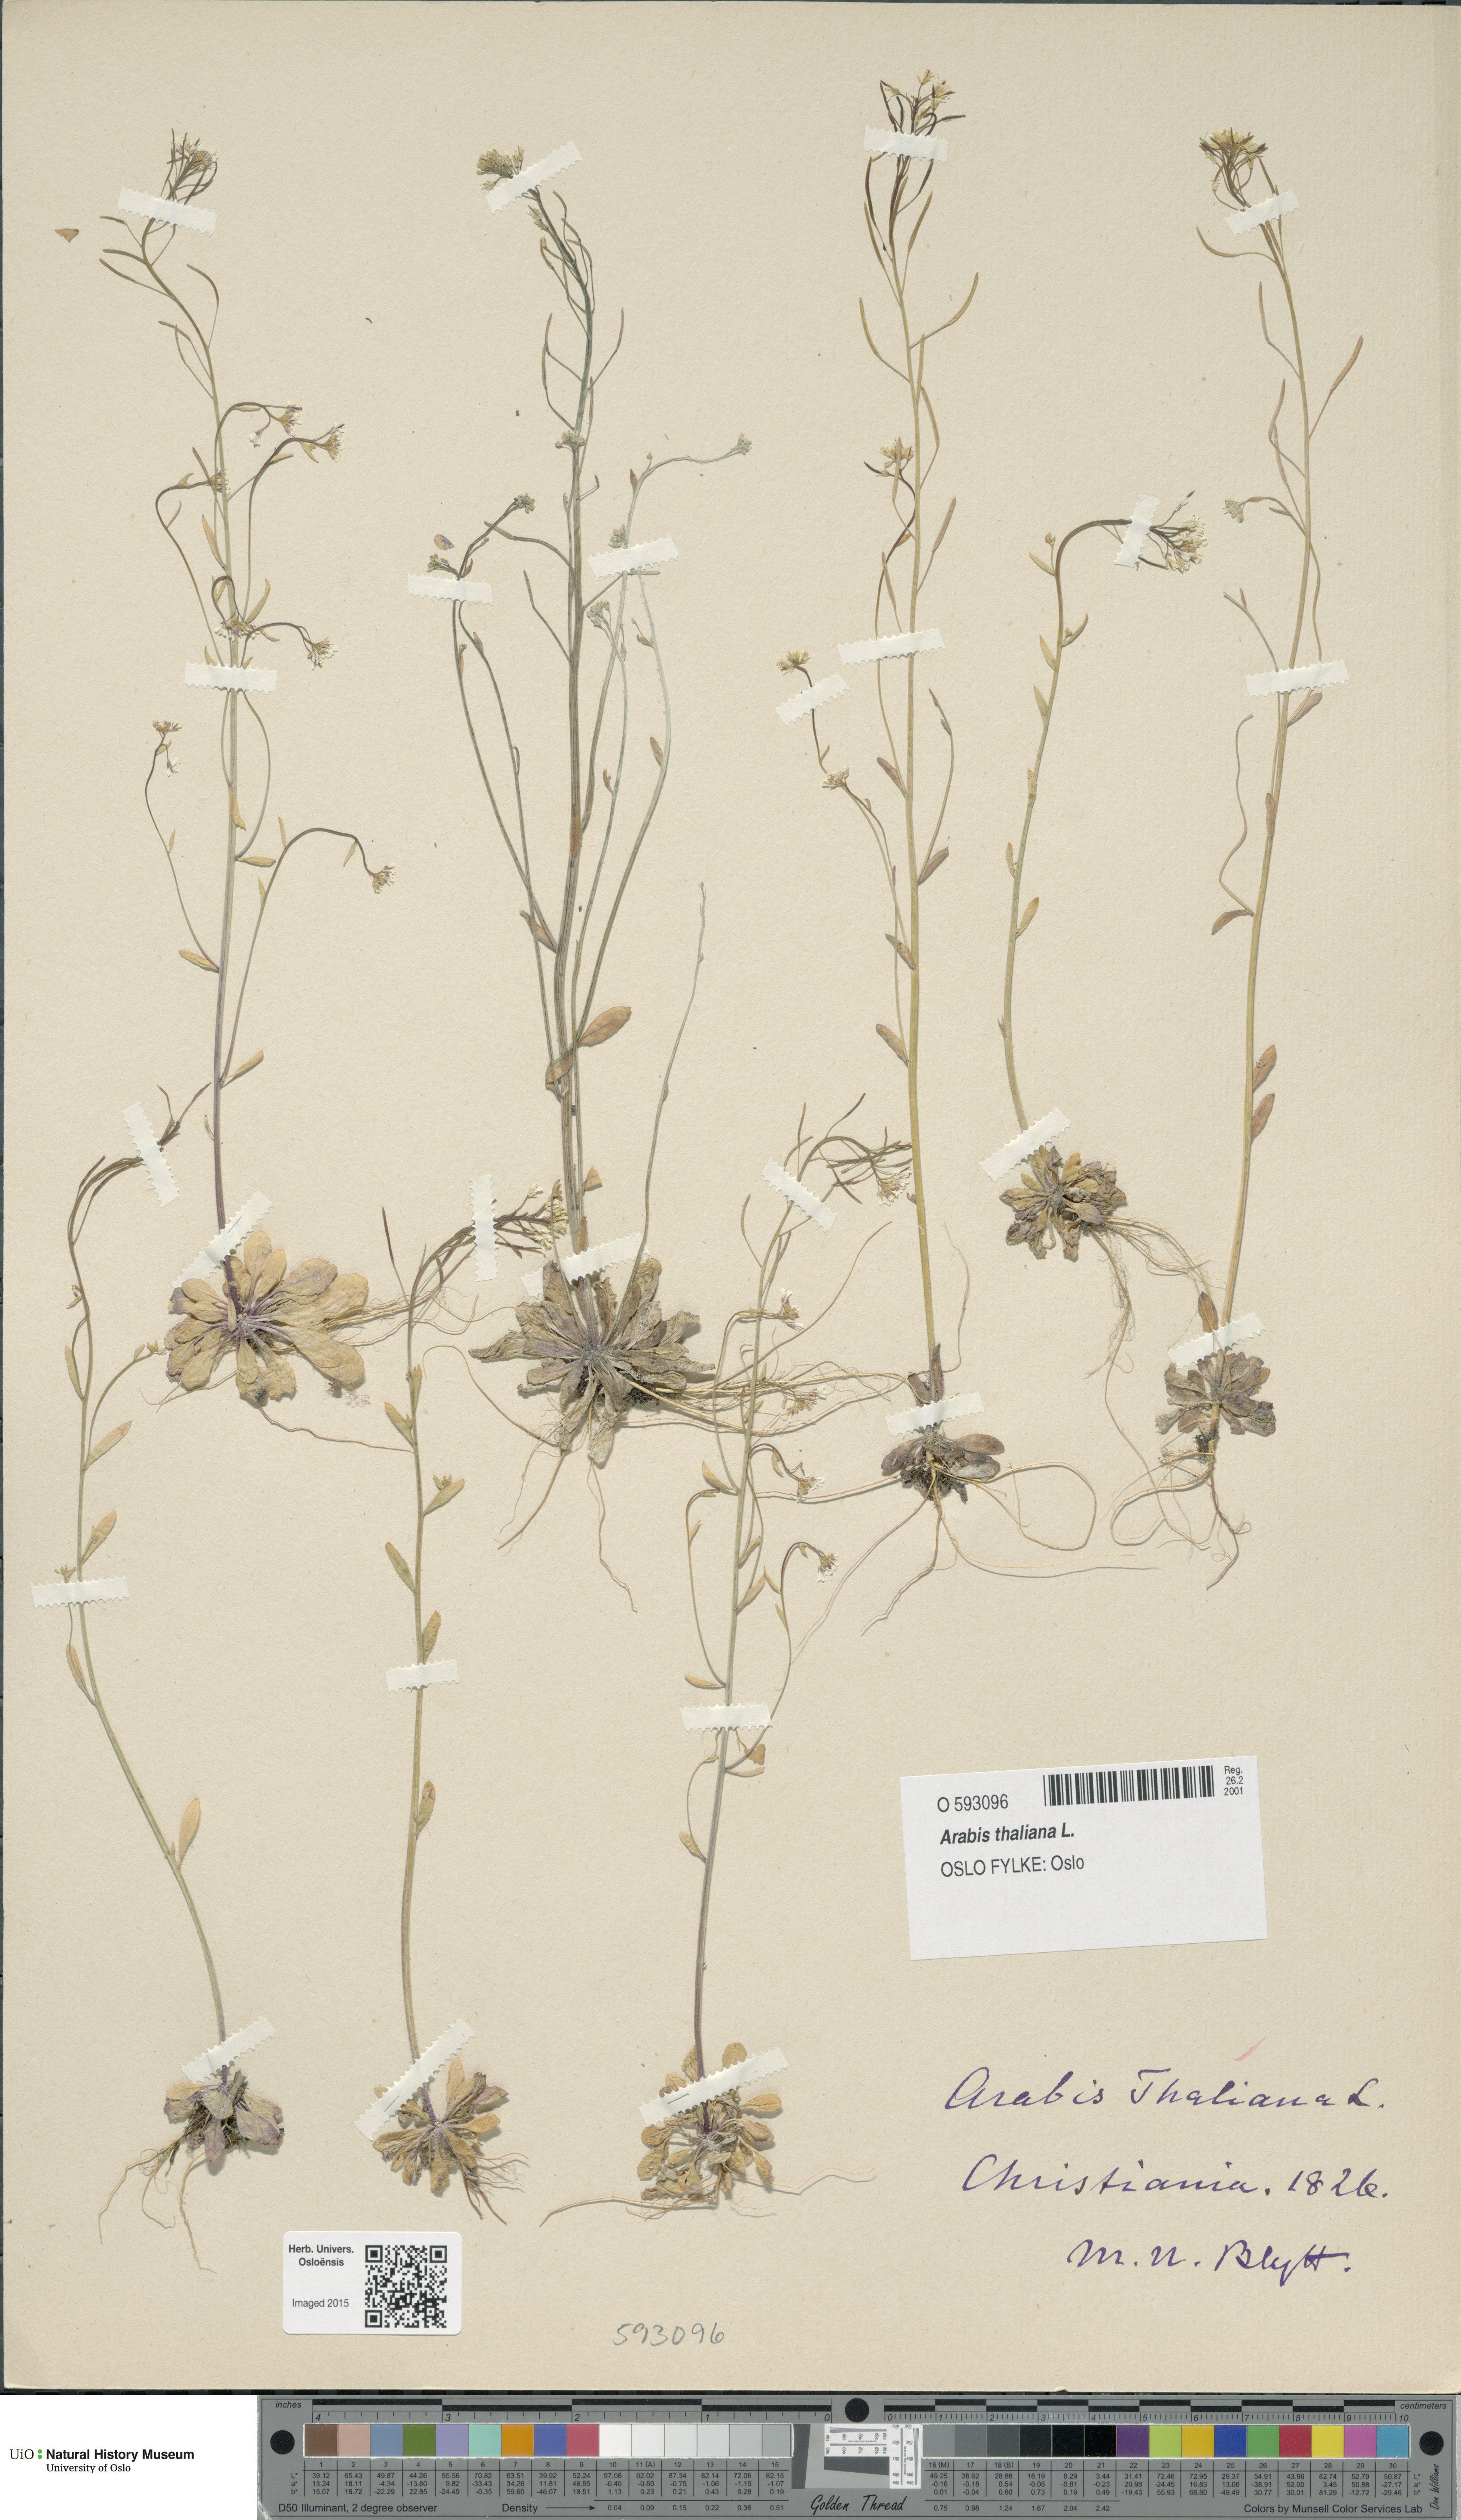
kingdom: Plantae
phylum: Tracheophyta
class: Magnoliopsida
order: Brassicales
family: Brassicaceae
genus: Arabidopsis
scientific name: Arabidopsis thaliana
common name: Thale cress
